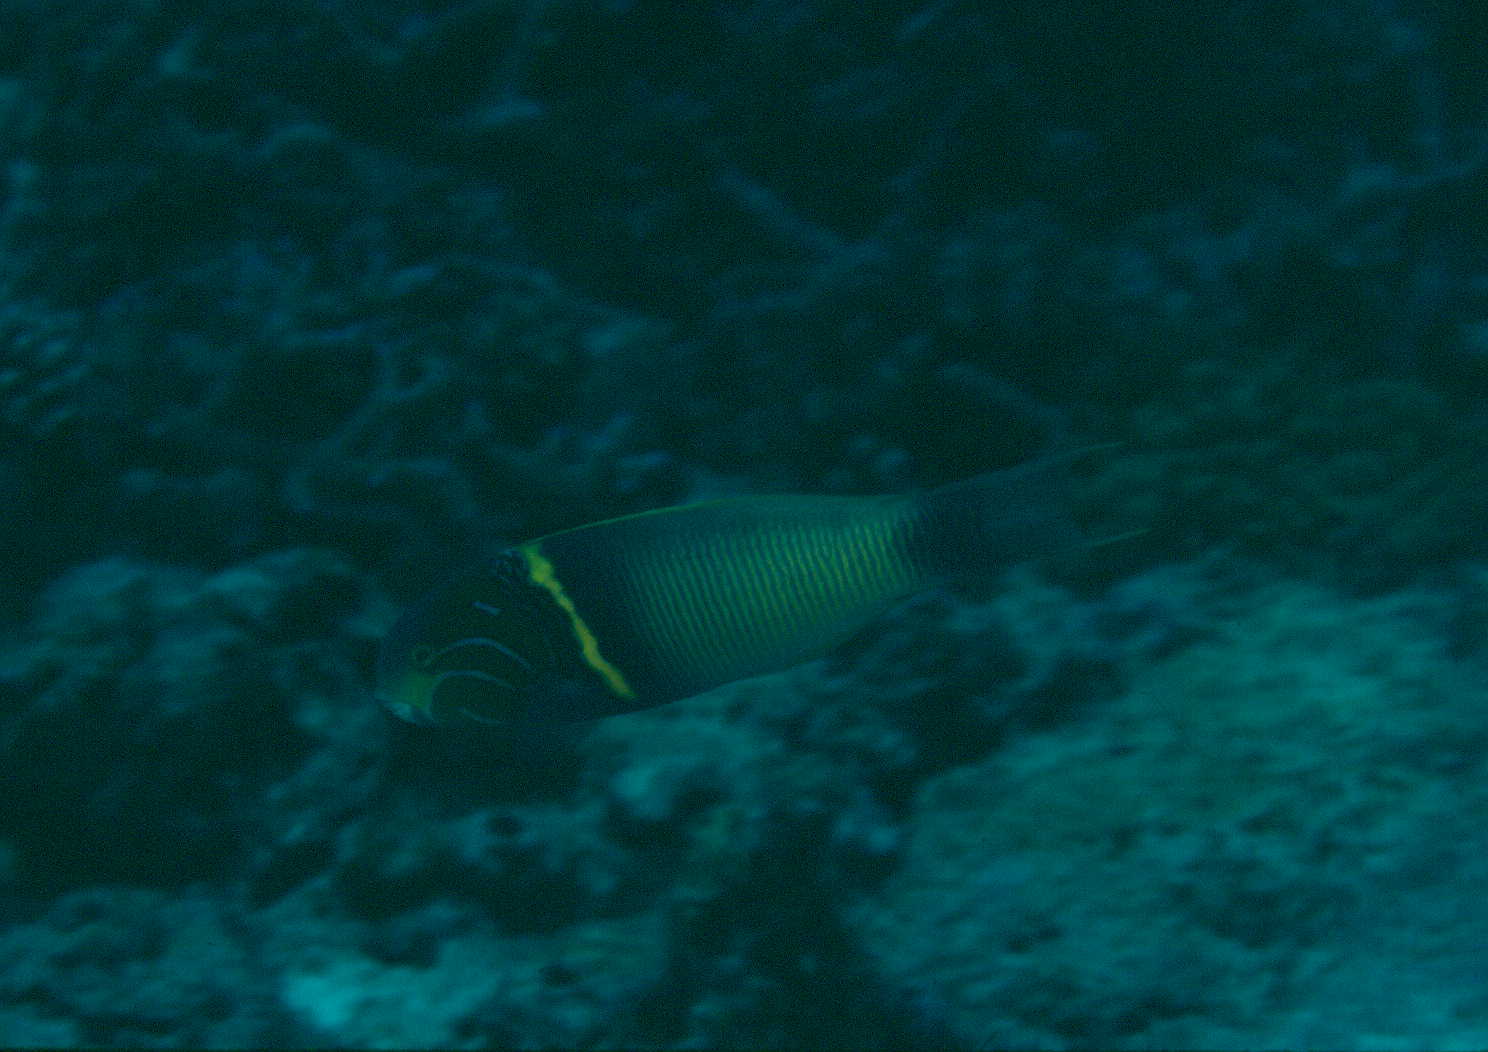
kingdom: Animalia
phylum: Chordata
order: Perciformes
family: Labridae
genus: Thalassoma
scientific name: Thalassoma hebraicum
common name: Goldbar wrasse
